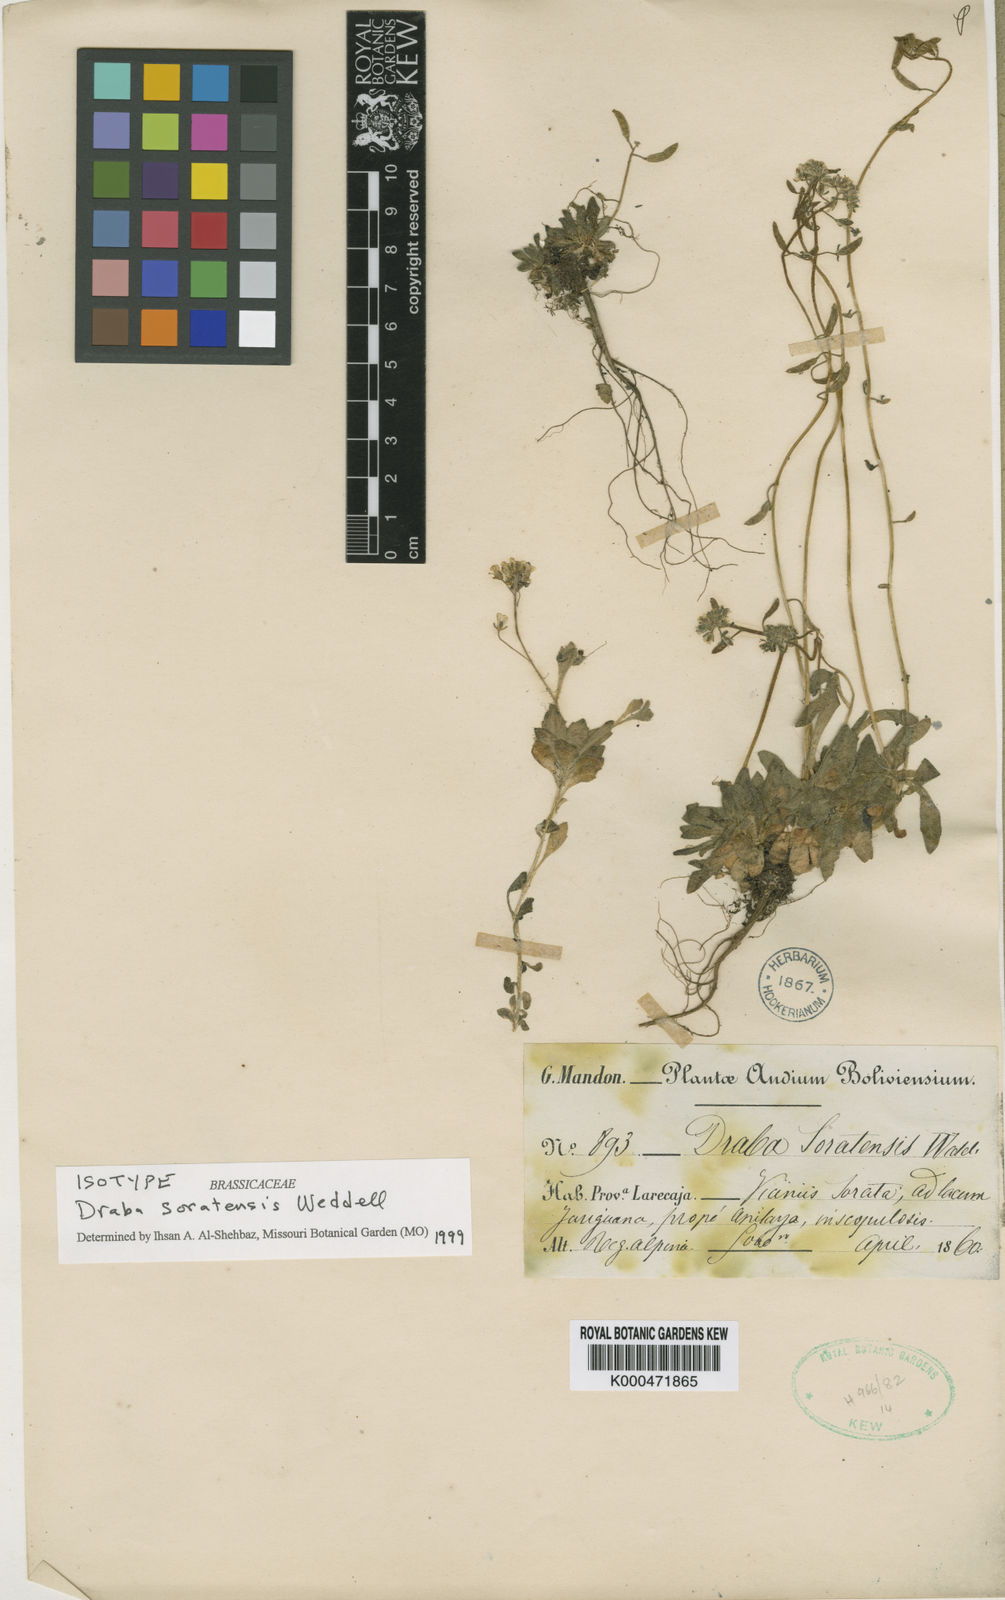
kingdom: Plantae
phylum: Tracheophyta
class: Magnoliopsida
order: Brassicales
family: Brassicaceae
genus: Draba
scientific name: Draba soratensis
